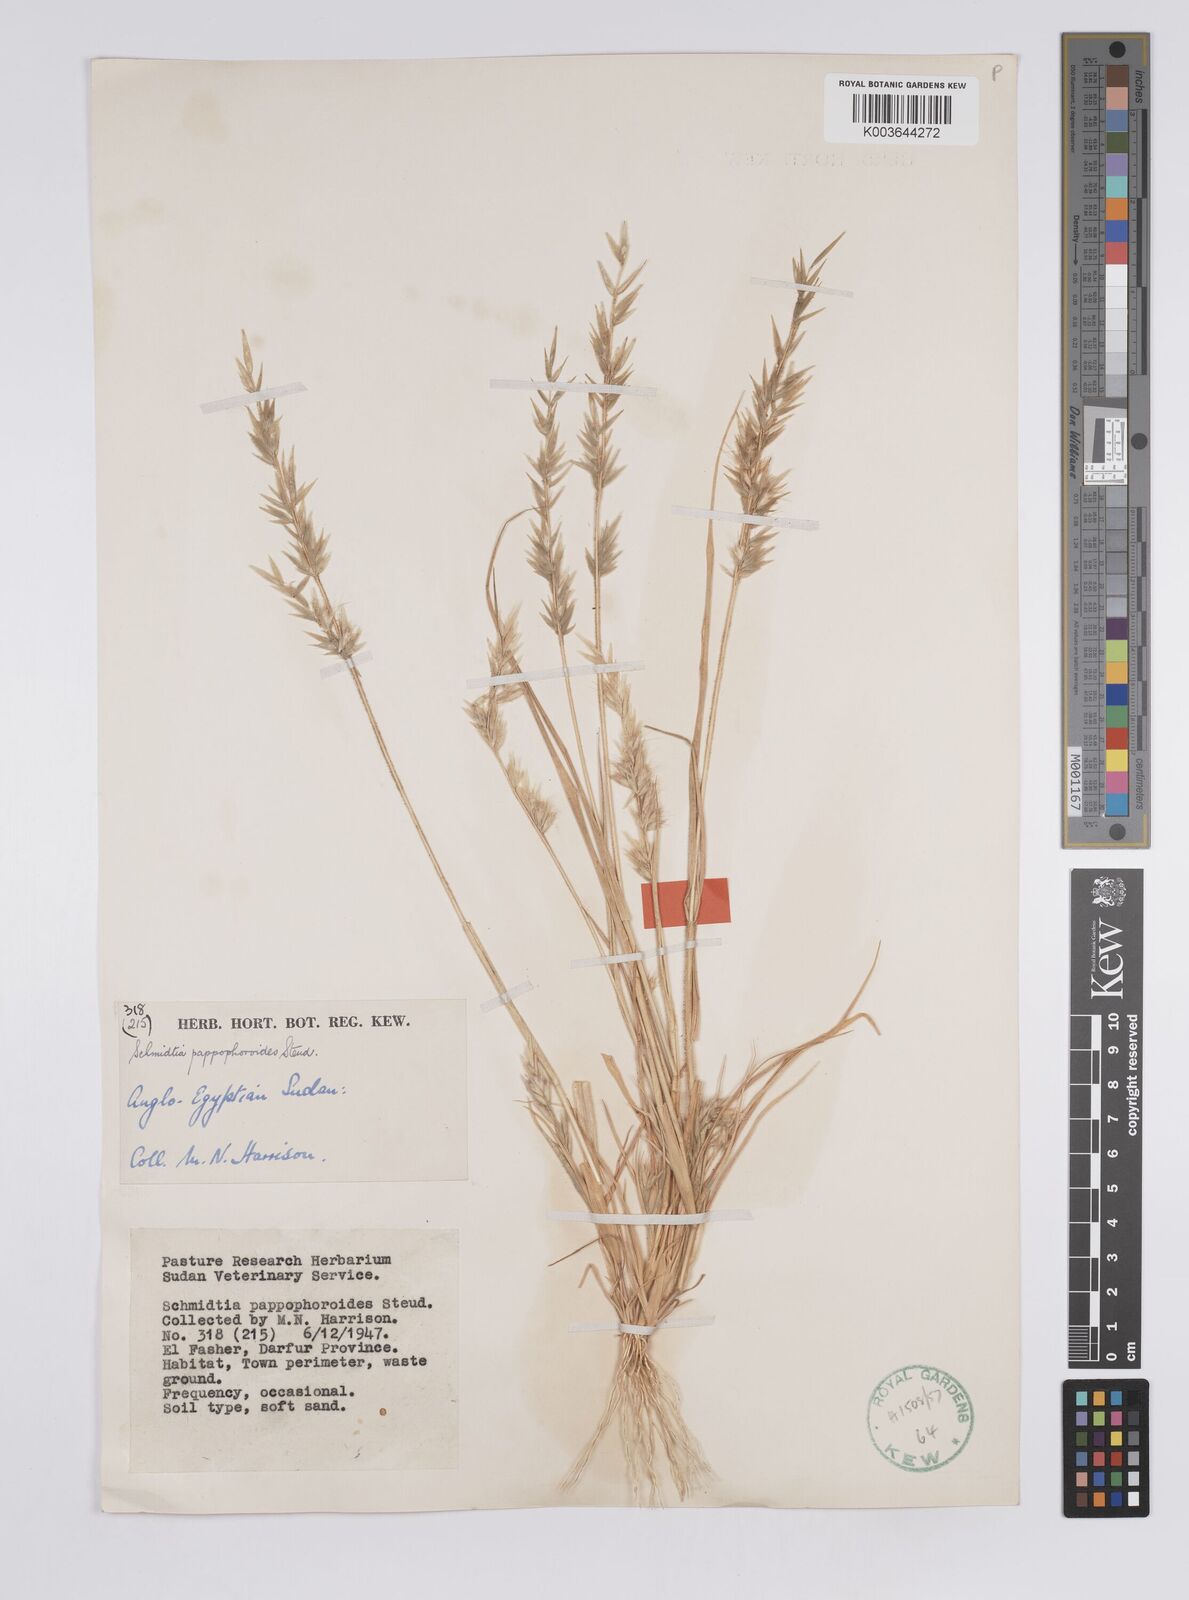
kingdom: Plantae
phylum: Tracheophyta
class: Liliopsida
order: Poales
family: Poaceae
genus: Schmidtia
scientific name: Schmidtia kalahariensis
